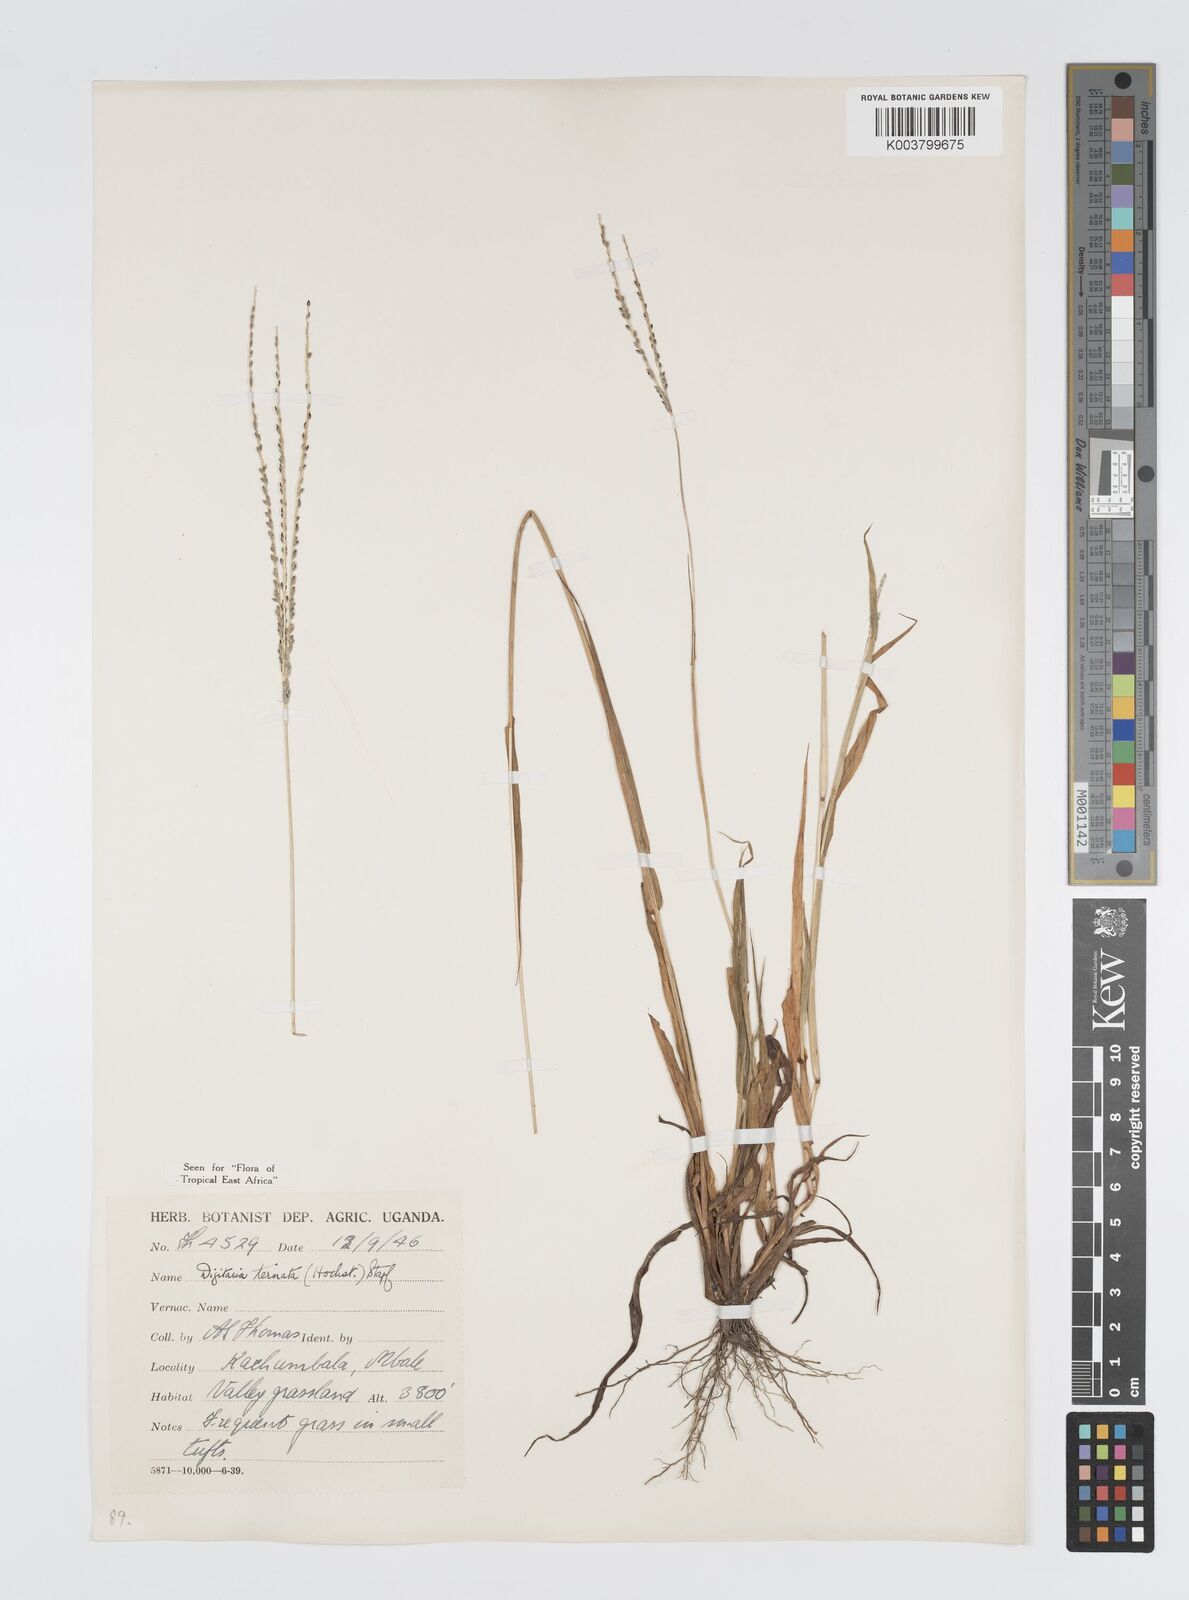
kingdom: Plantae
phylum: Tracheophyta
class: Liliopsida
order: Poales
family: Poaceae
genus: Digitaria
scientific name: Digitaria ternata
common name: Blackseed crabgrass
